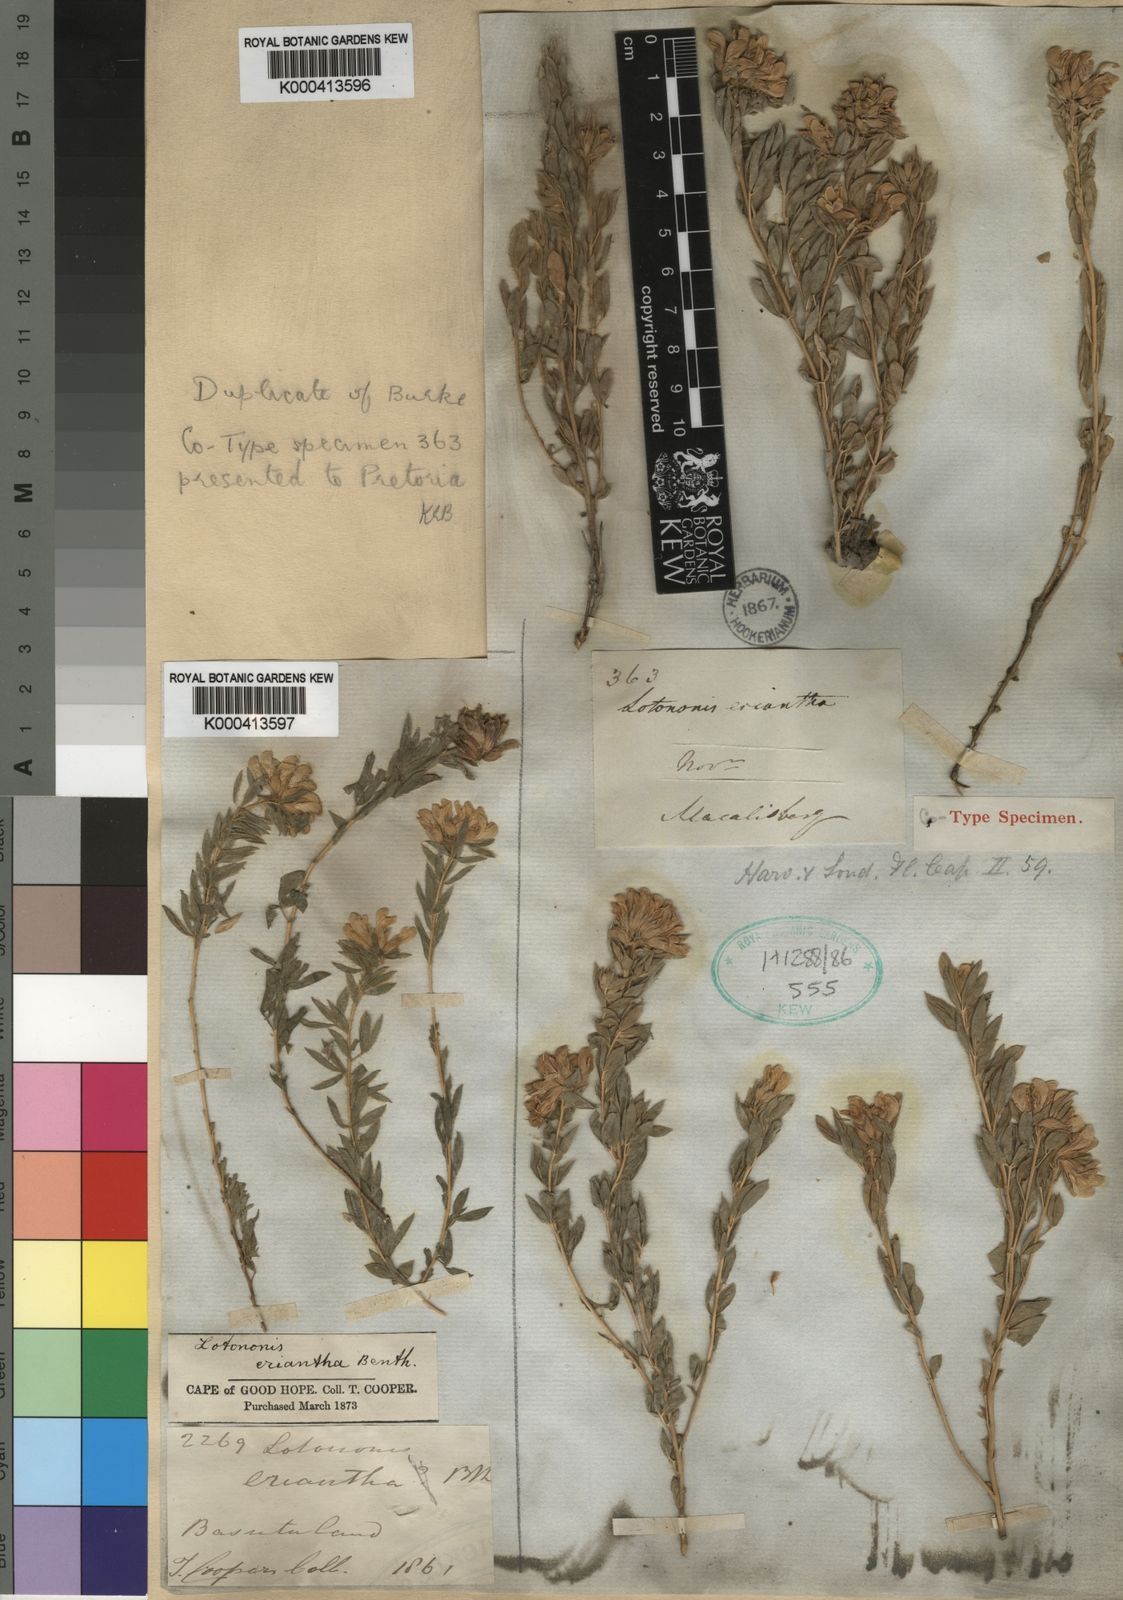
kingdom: Plantae
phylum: Tracheophyta
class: Magnoliopsida
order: Fabales
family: Fabaceae
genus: Leobordea
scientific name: Leobordea eriantha
